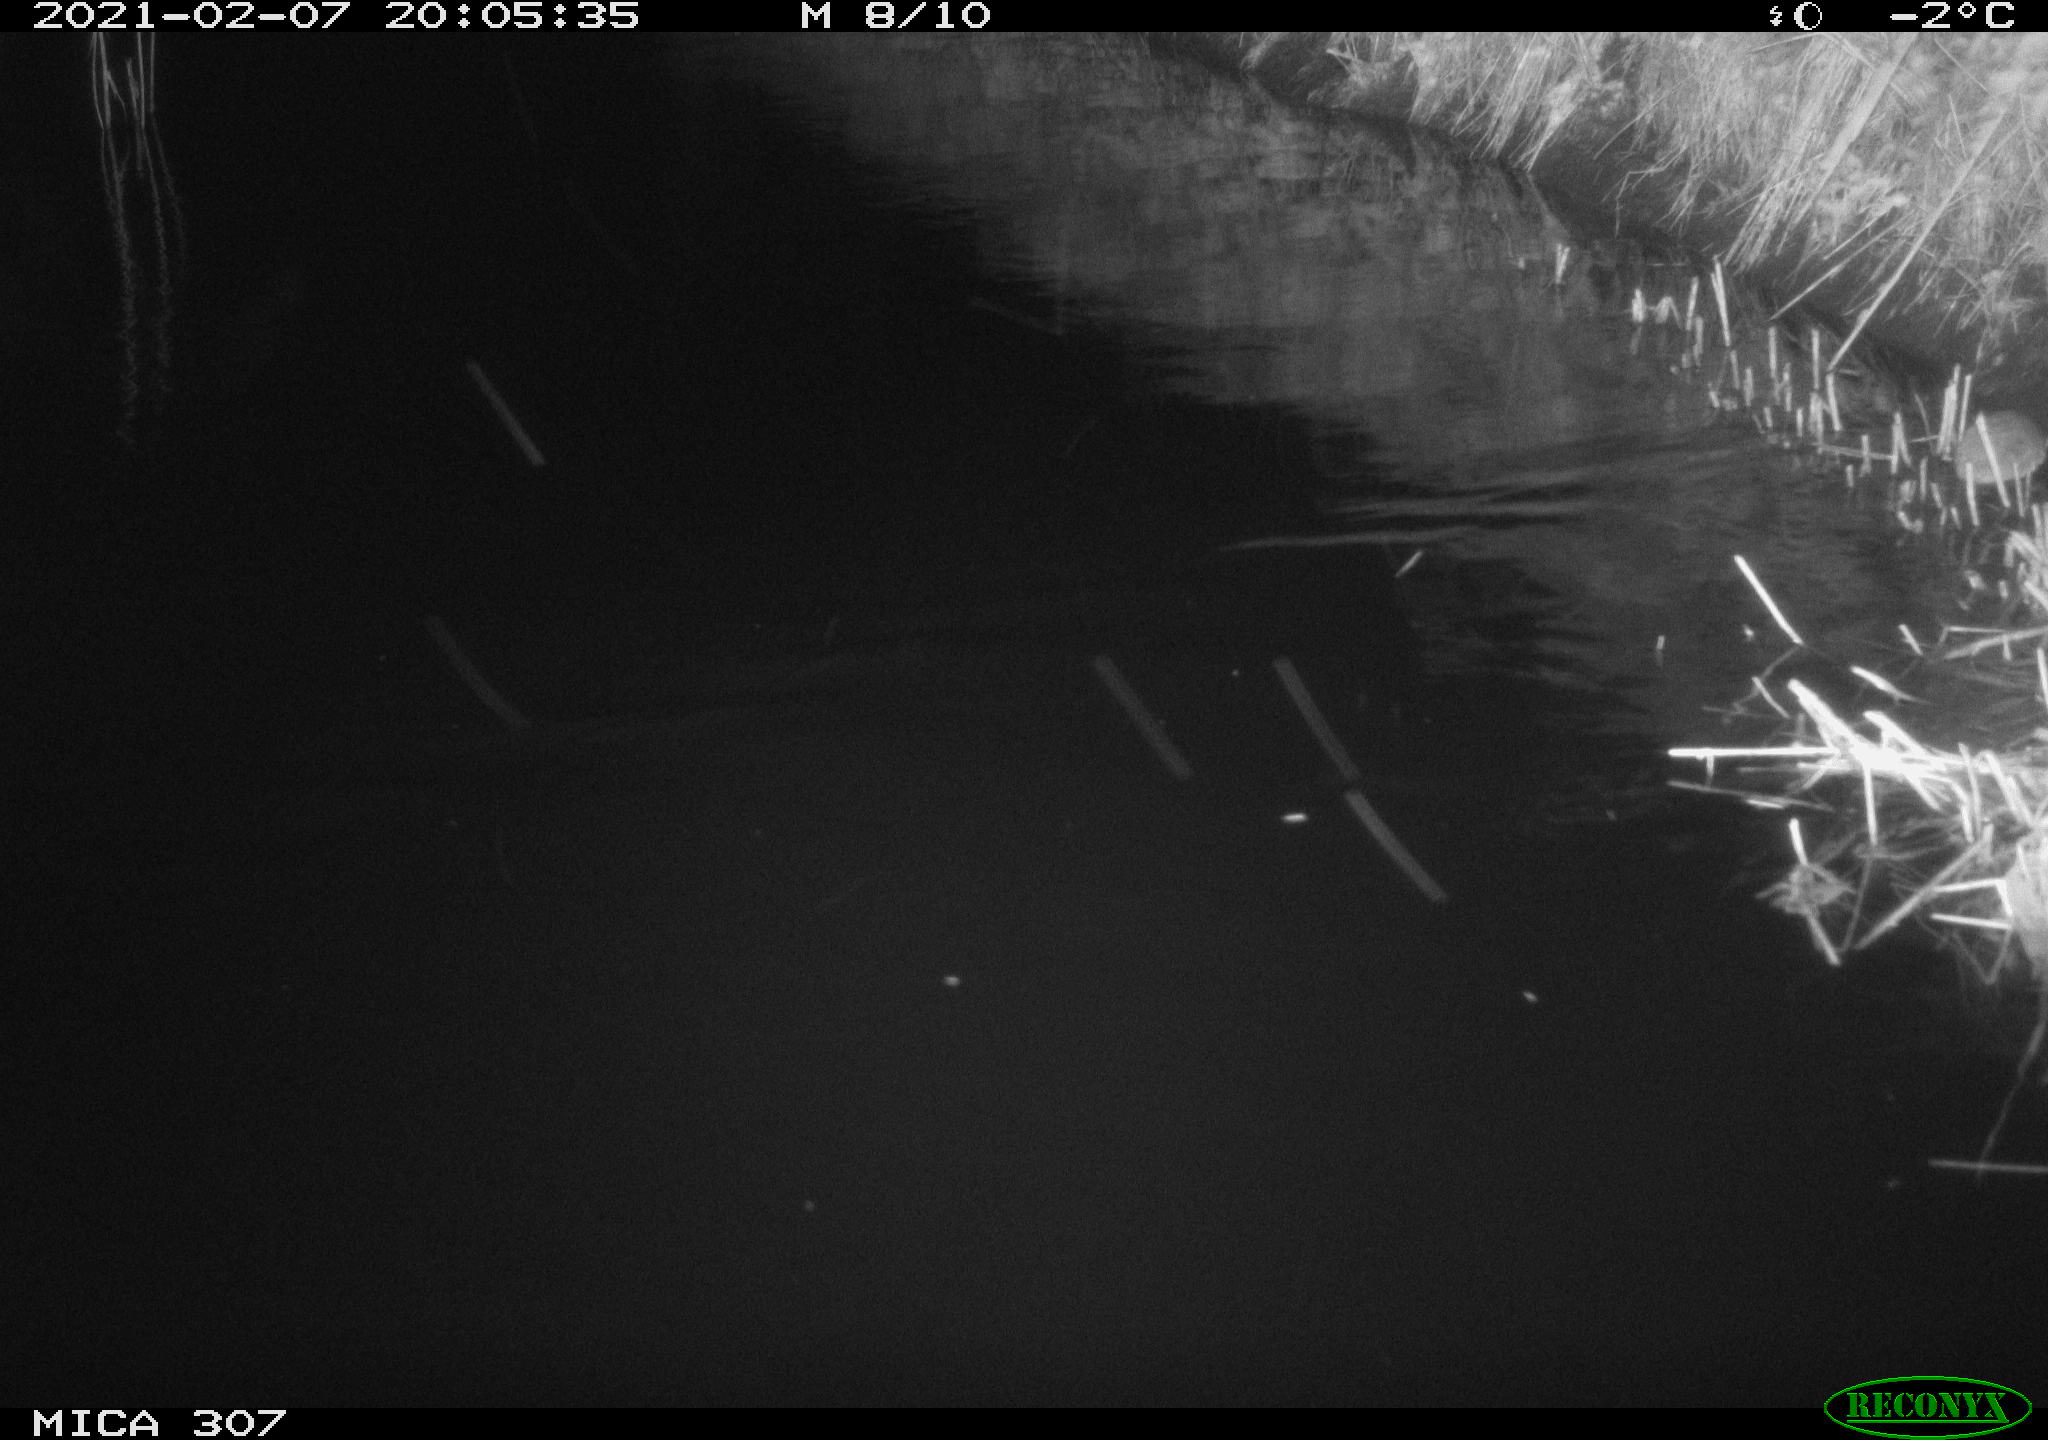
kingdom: Animalia
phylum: Chordata
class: Mammalia
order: Rodentia
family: Muridae
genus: Rattus
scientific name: Rattus norvegicus
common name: Brown rat
